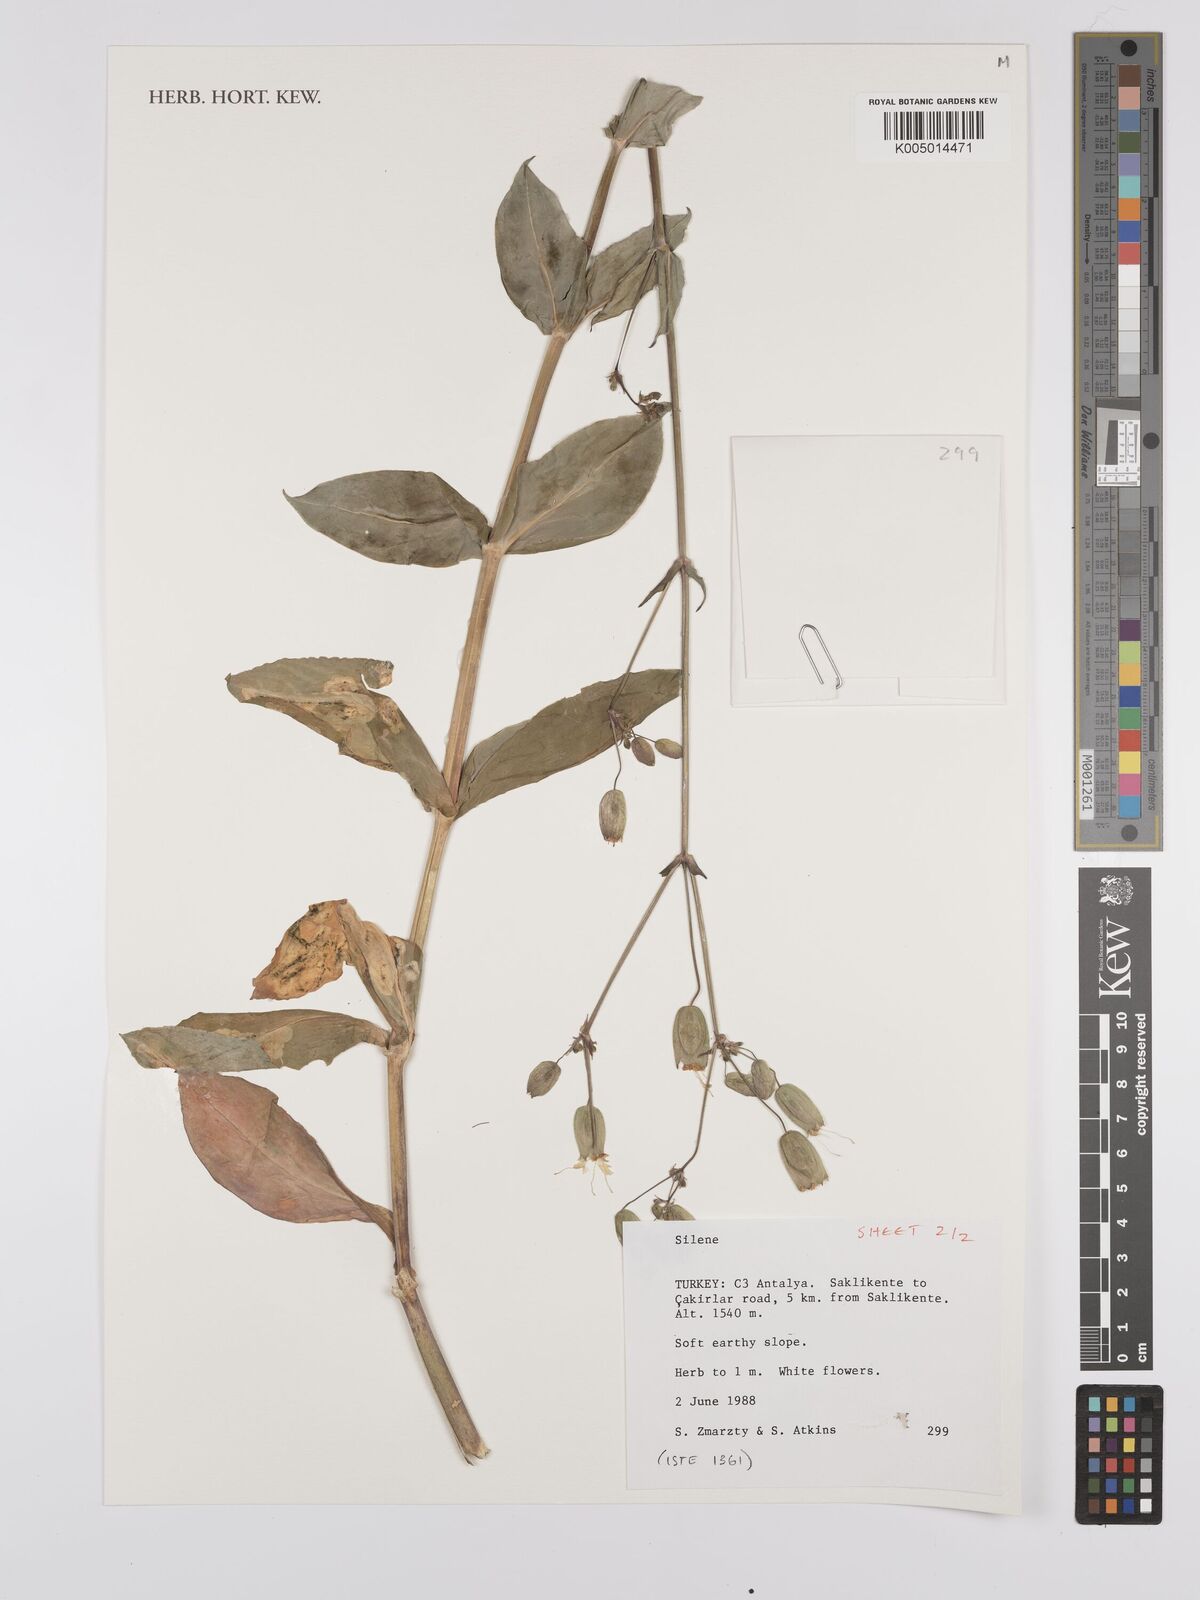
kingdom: Plantae
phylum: Tracheophyta
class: Magnoliopsida
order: Caryophyllales
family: Caryophyllaceae
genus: Silene
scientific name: Silene
